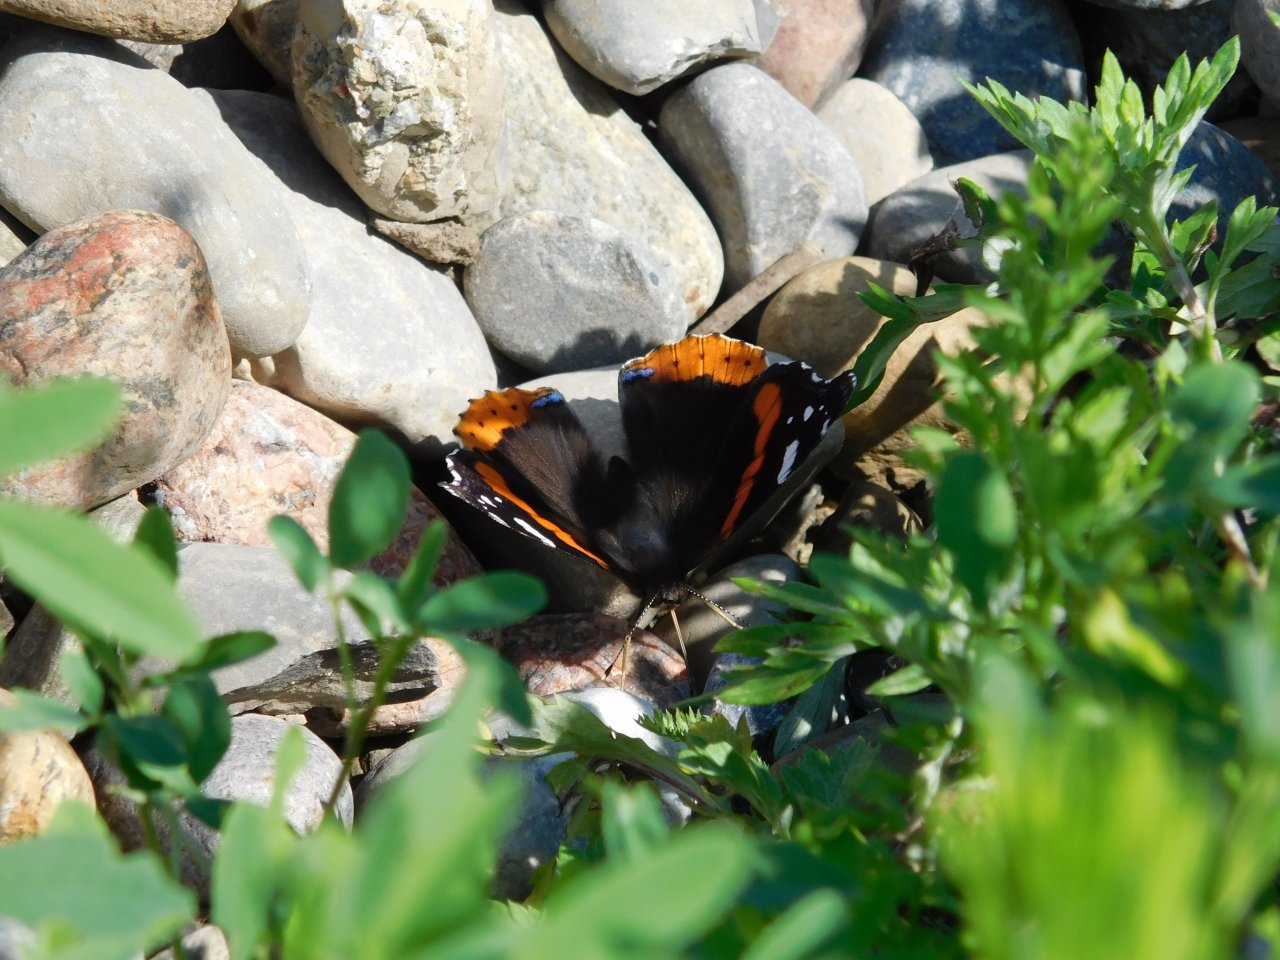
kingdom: Animalia
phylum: Arthropoda
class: Insecta
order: Lepidoptera
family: Nymphalidae
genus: Vanessa
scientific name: Vanessa atalanta
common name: Red Admiral
